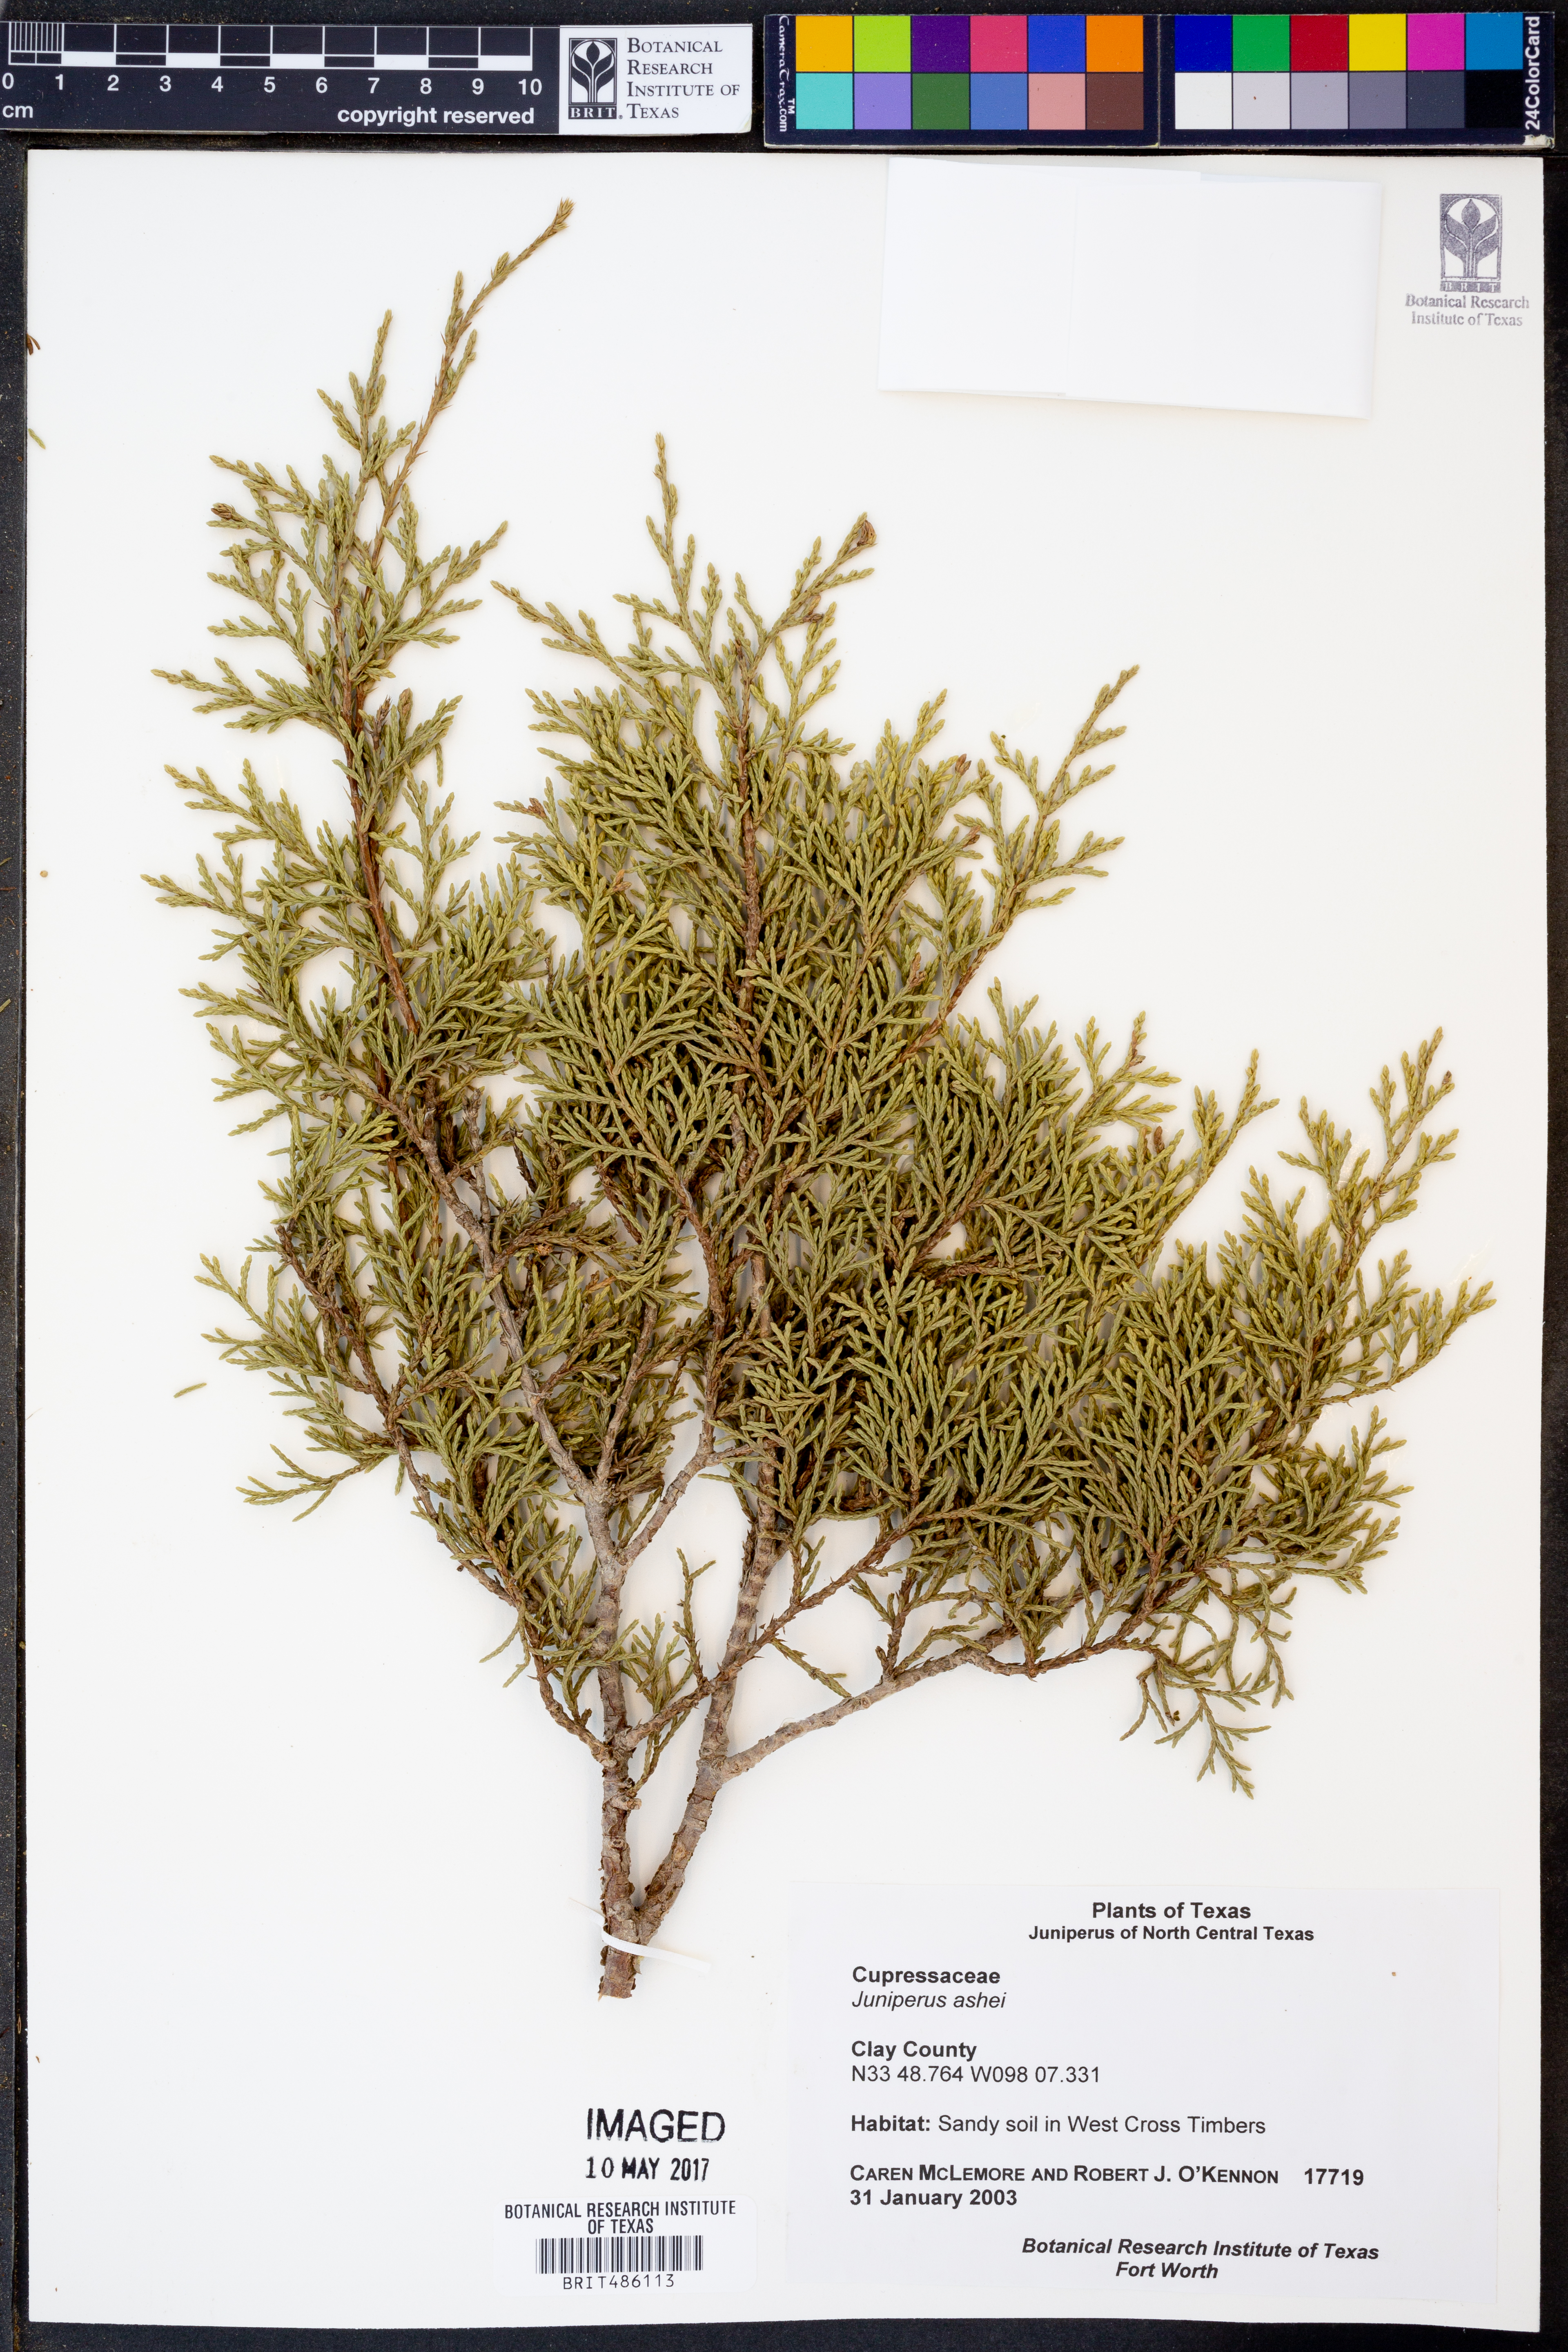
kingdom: Plantae
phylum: Tracheophyta
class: Pinopsida
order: Pinales
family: Cupressaceae
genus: Juniperus
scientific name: Juniperus ashei
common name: Mexican juniper
